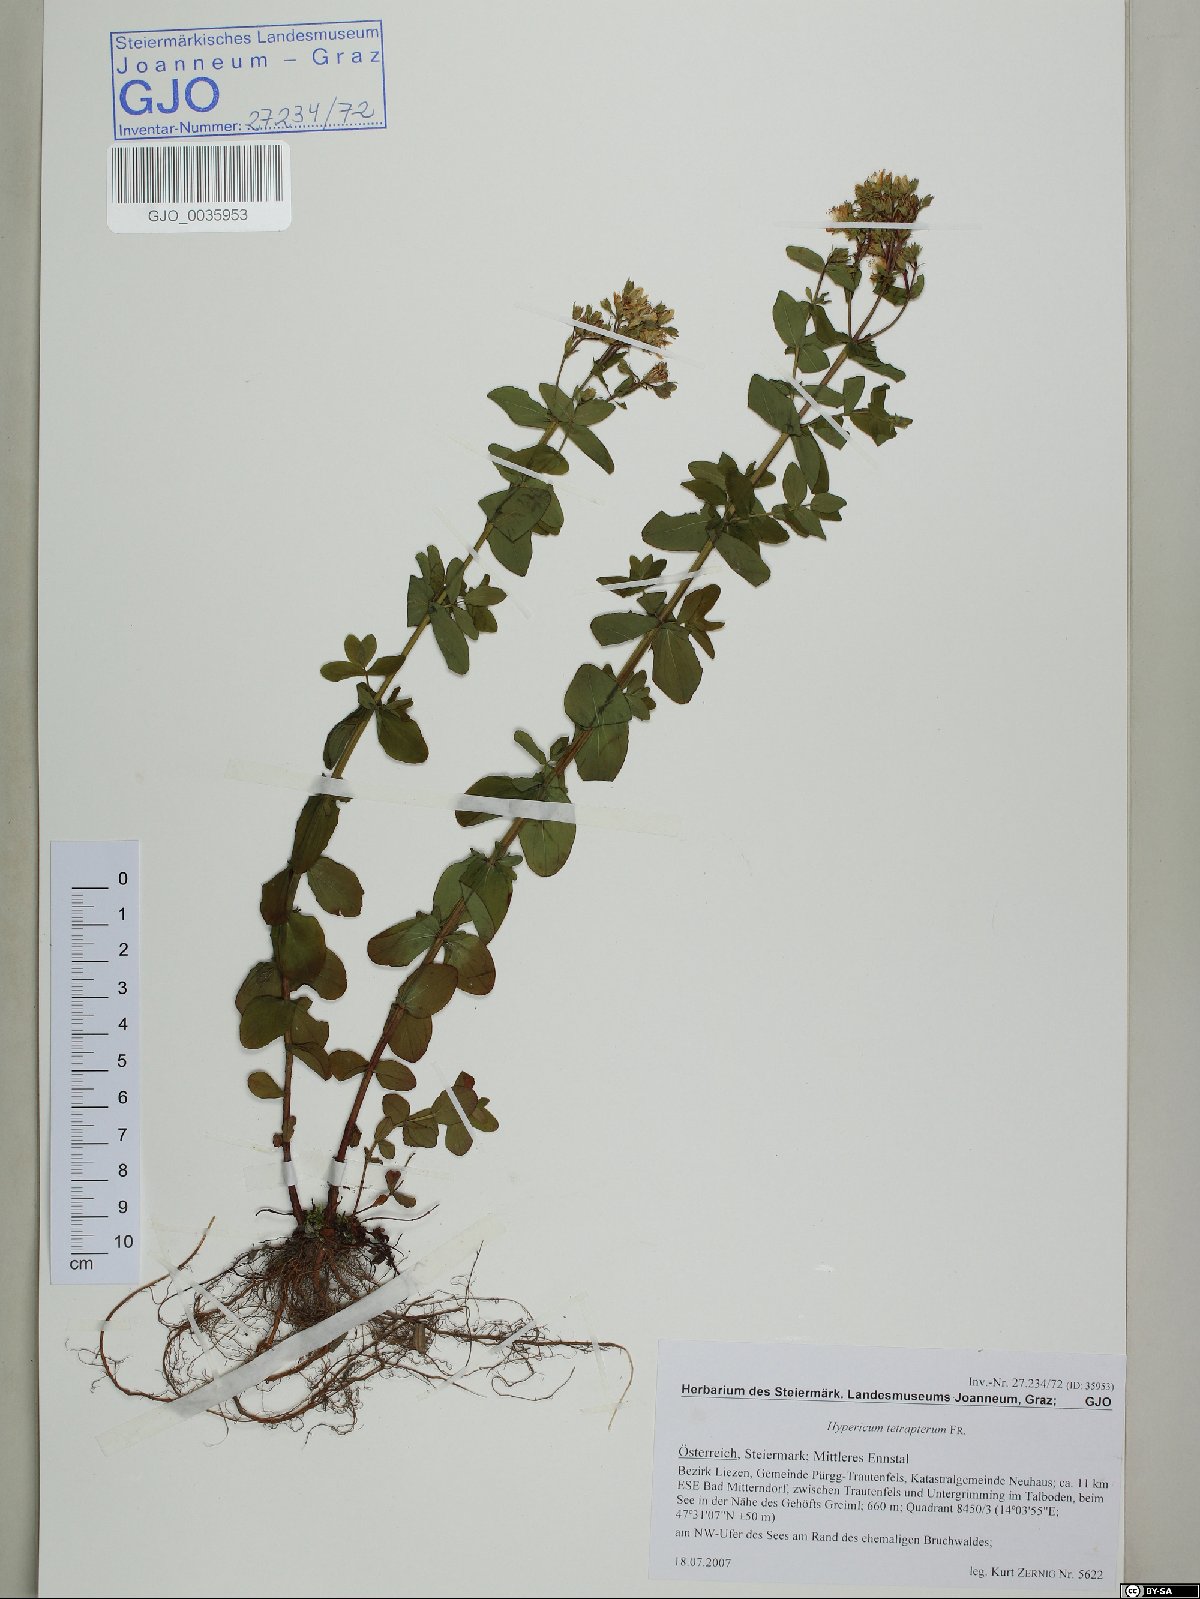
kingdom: Plantae
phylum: Tracheophyta
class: Magnoliopsida
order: Malpighiales
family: Hypericaceae
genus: Hypericum
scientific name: Hypericum tetrapterum
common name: Square-stalked st. john's-wort
